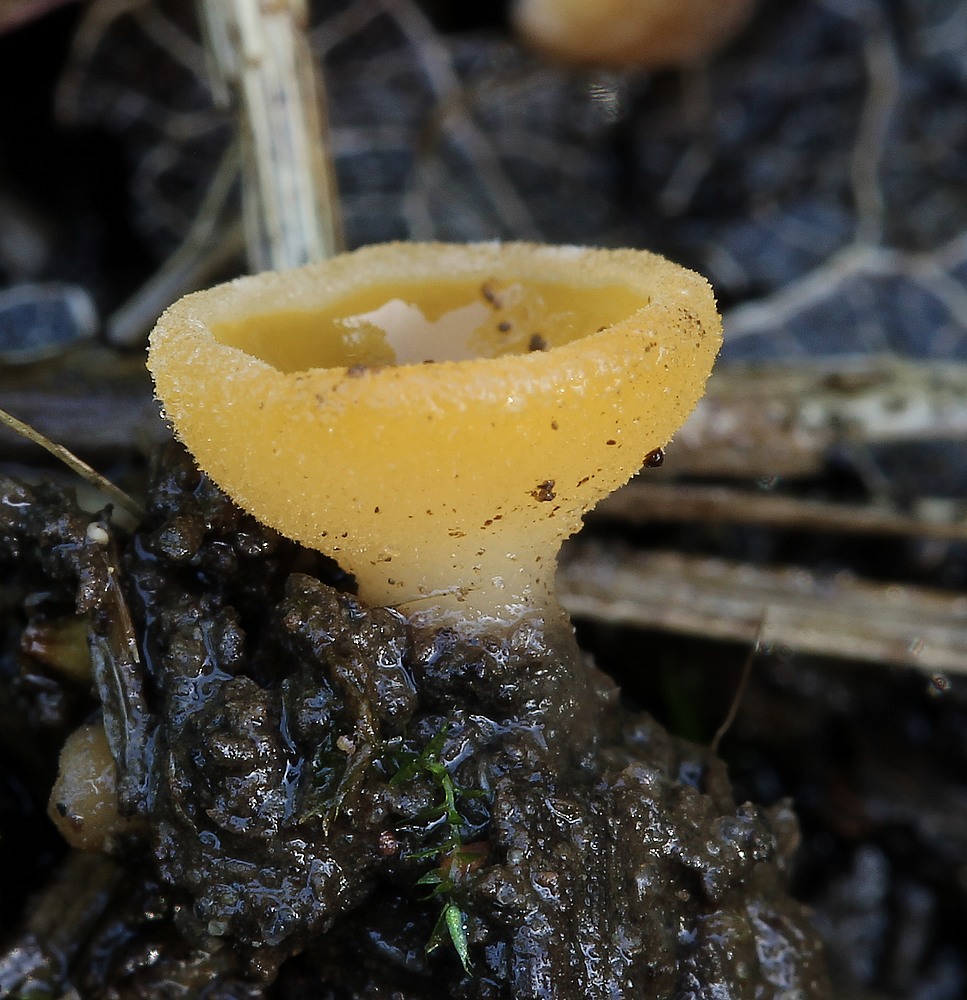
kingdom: Fungi
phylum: Ascomycota
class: Pezizomycetes
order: Pezizales
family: Pezizaceae
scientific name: Pezizaceae
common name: bægersvampfamilien
